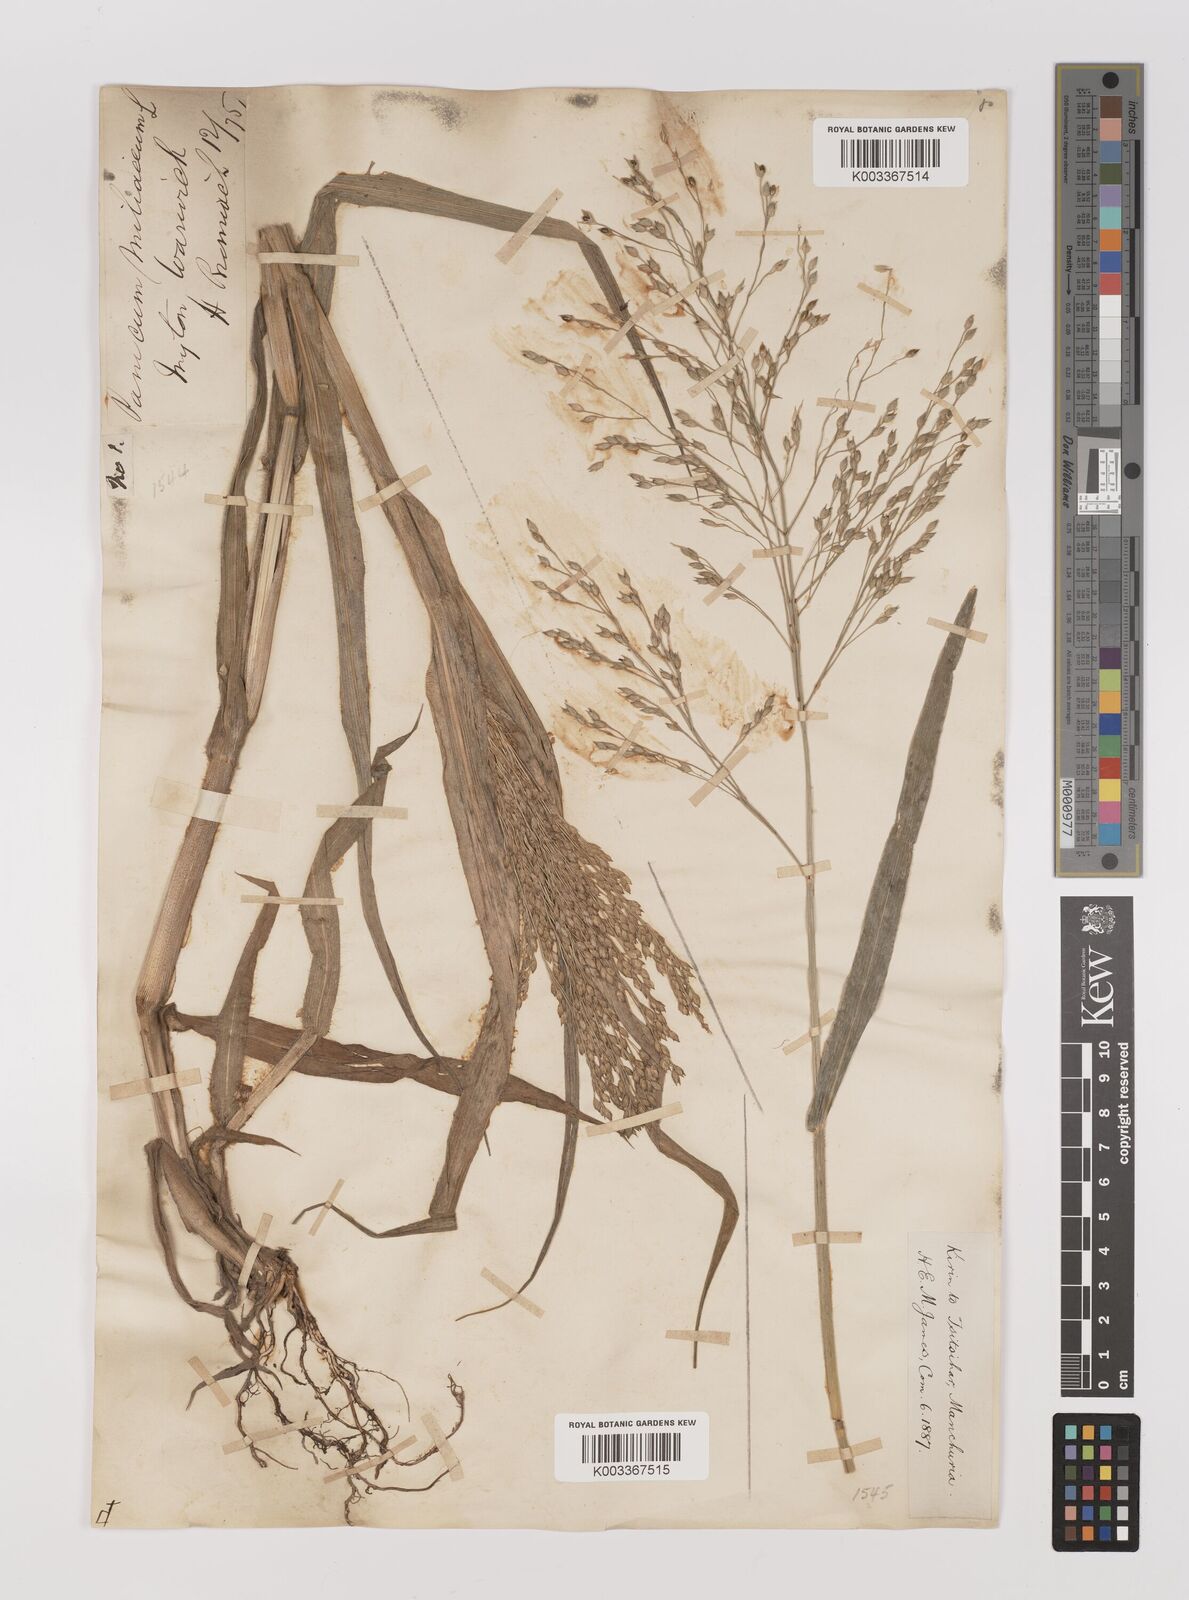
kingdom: Plantae
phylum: Tracheophyta
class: Liliopsida
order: Poales
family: Poaceae
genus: Panicum
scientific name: Panicum miliaceum
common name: Common millet
